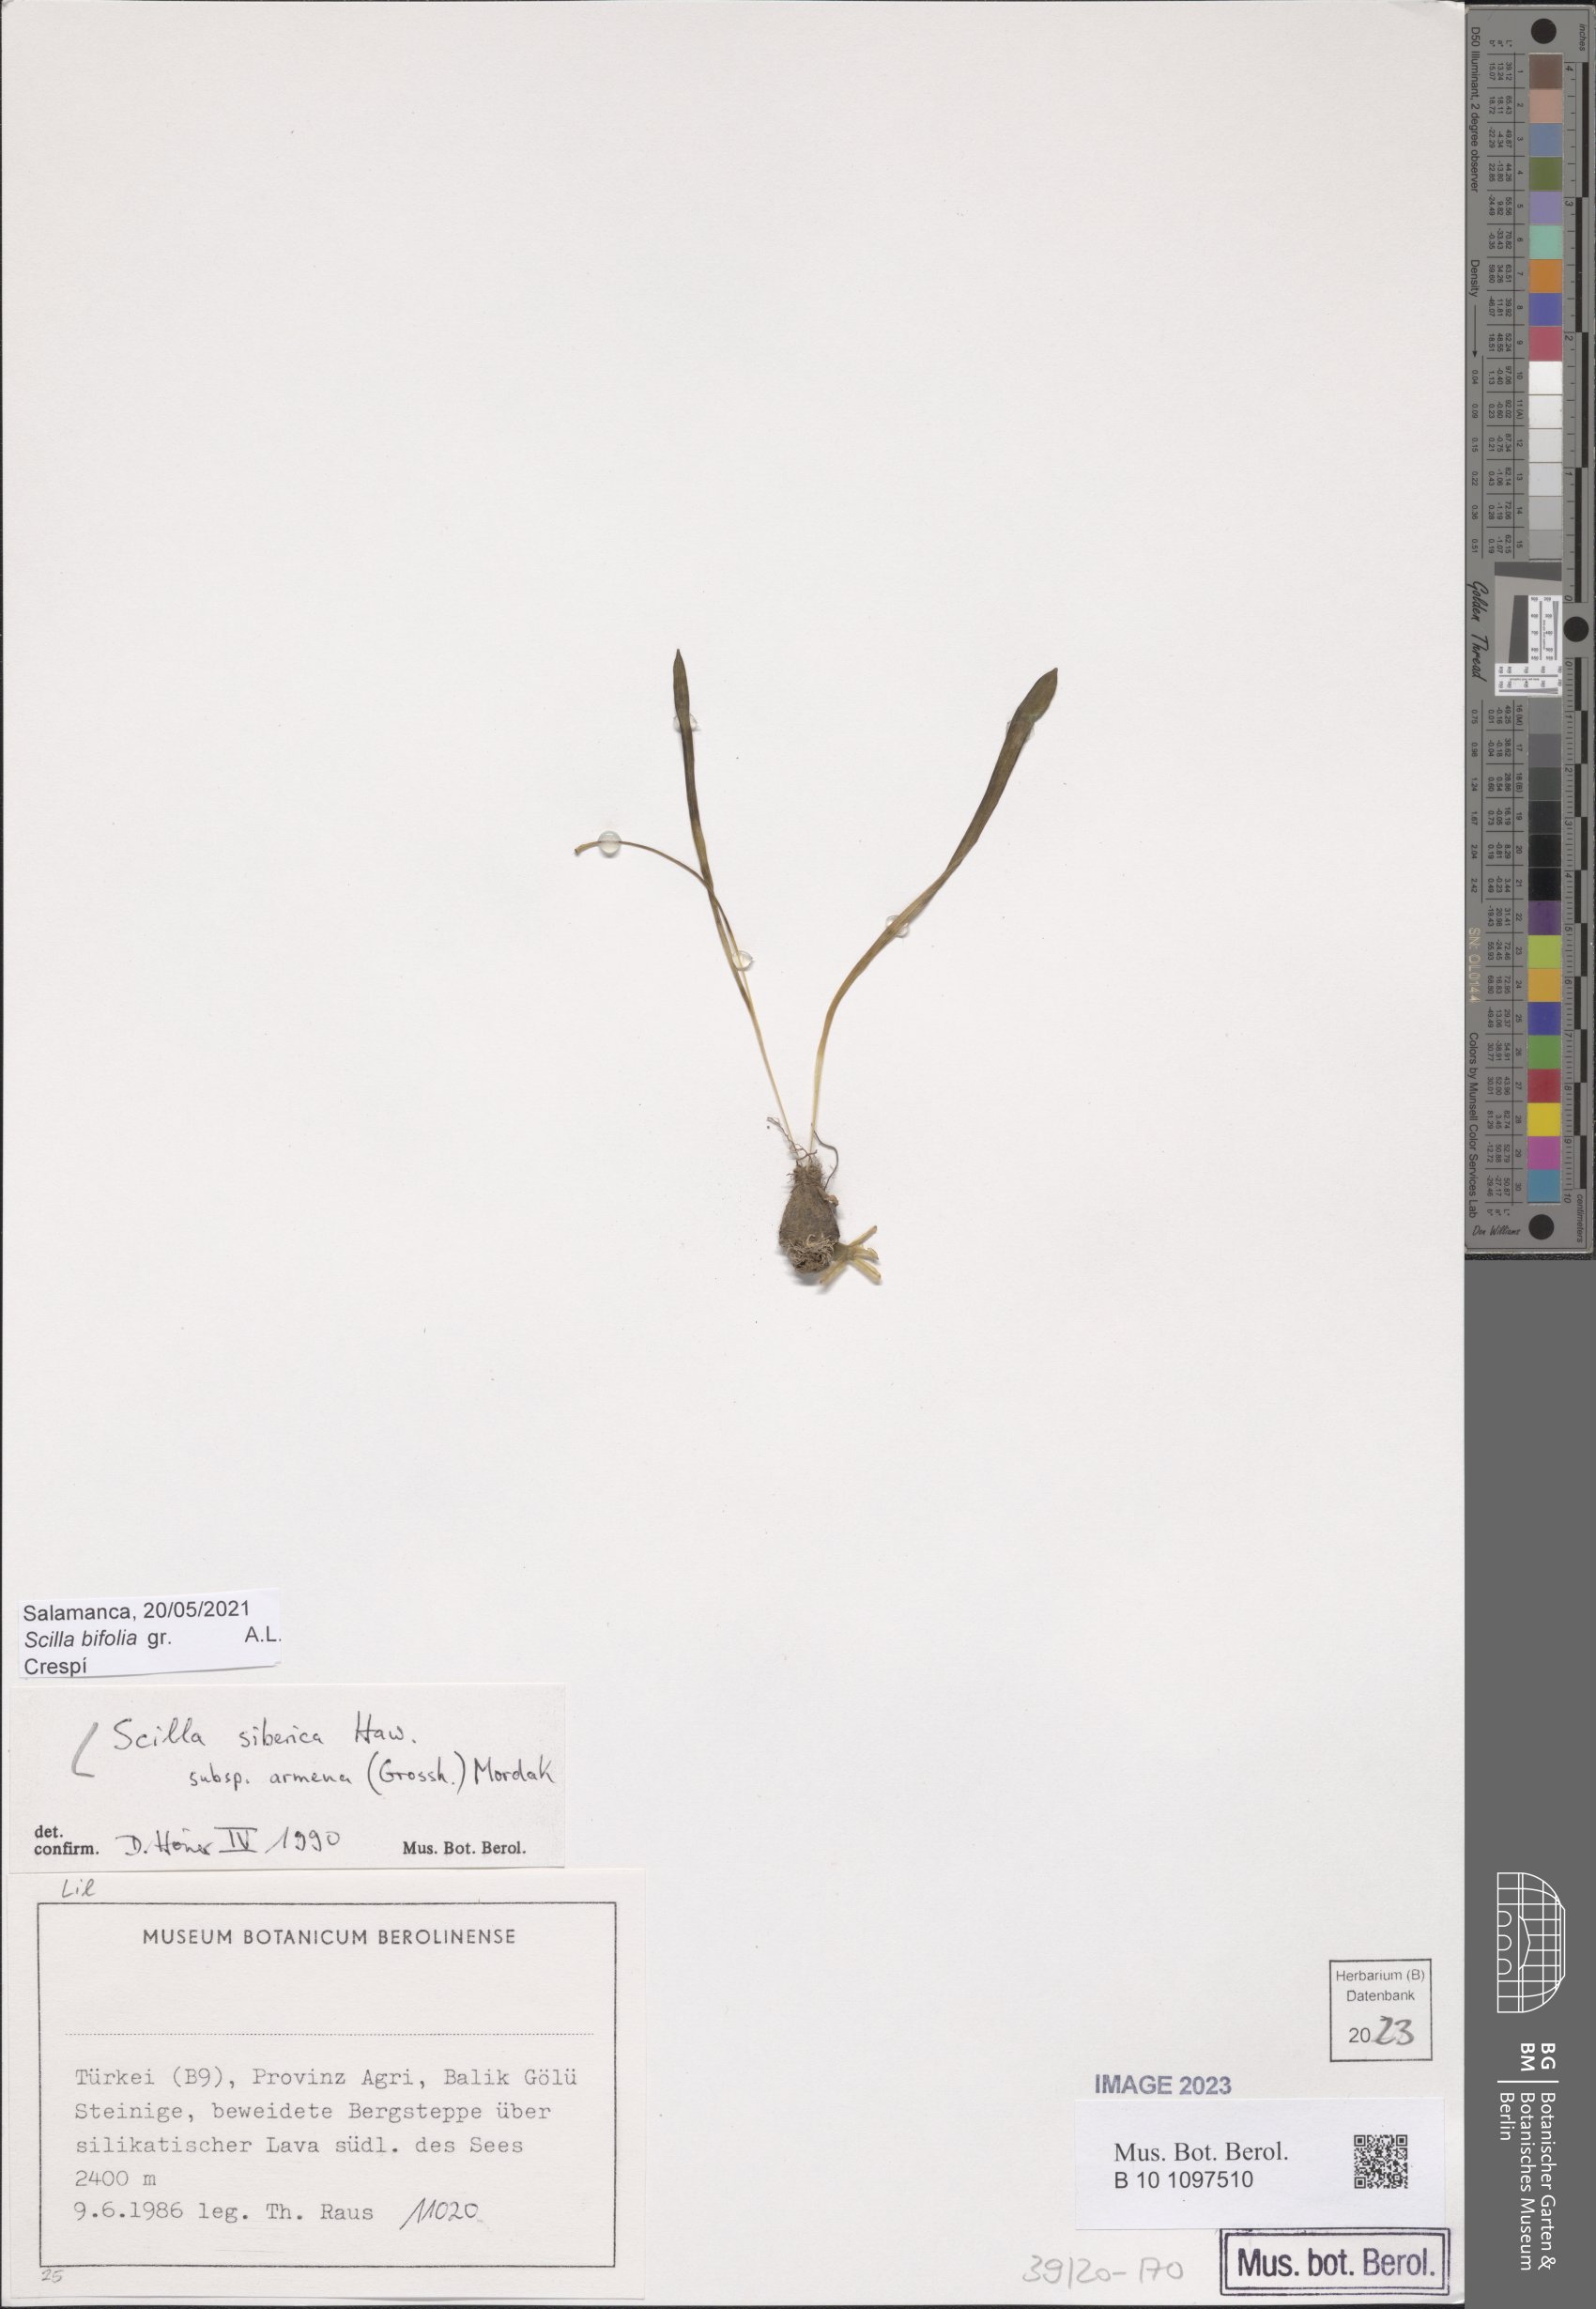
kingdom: Plantae
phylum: Tracheophyta
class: Liliopsida
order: Asparagales
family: Asparagaceae
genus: Scilla
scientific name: Scilla siberica
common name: Siberian squill
